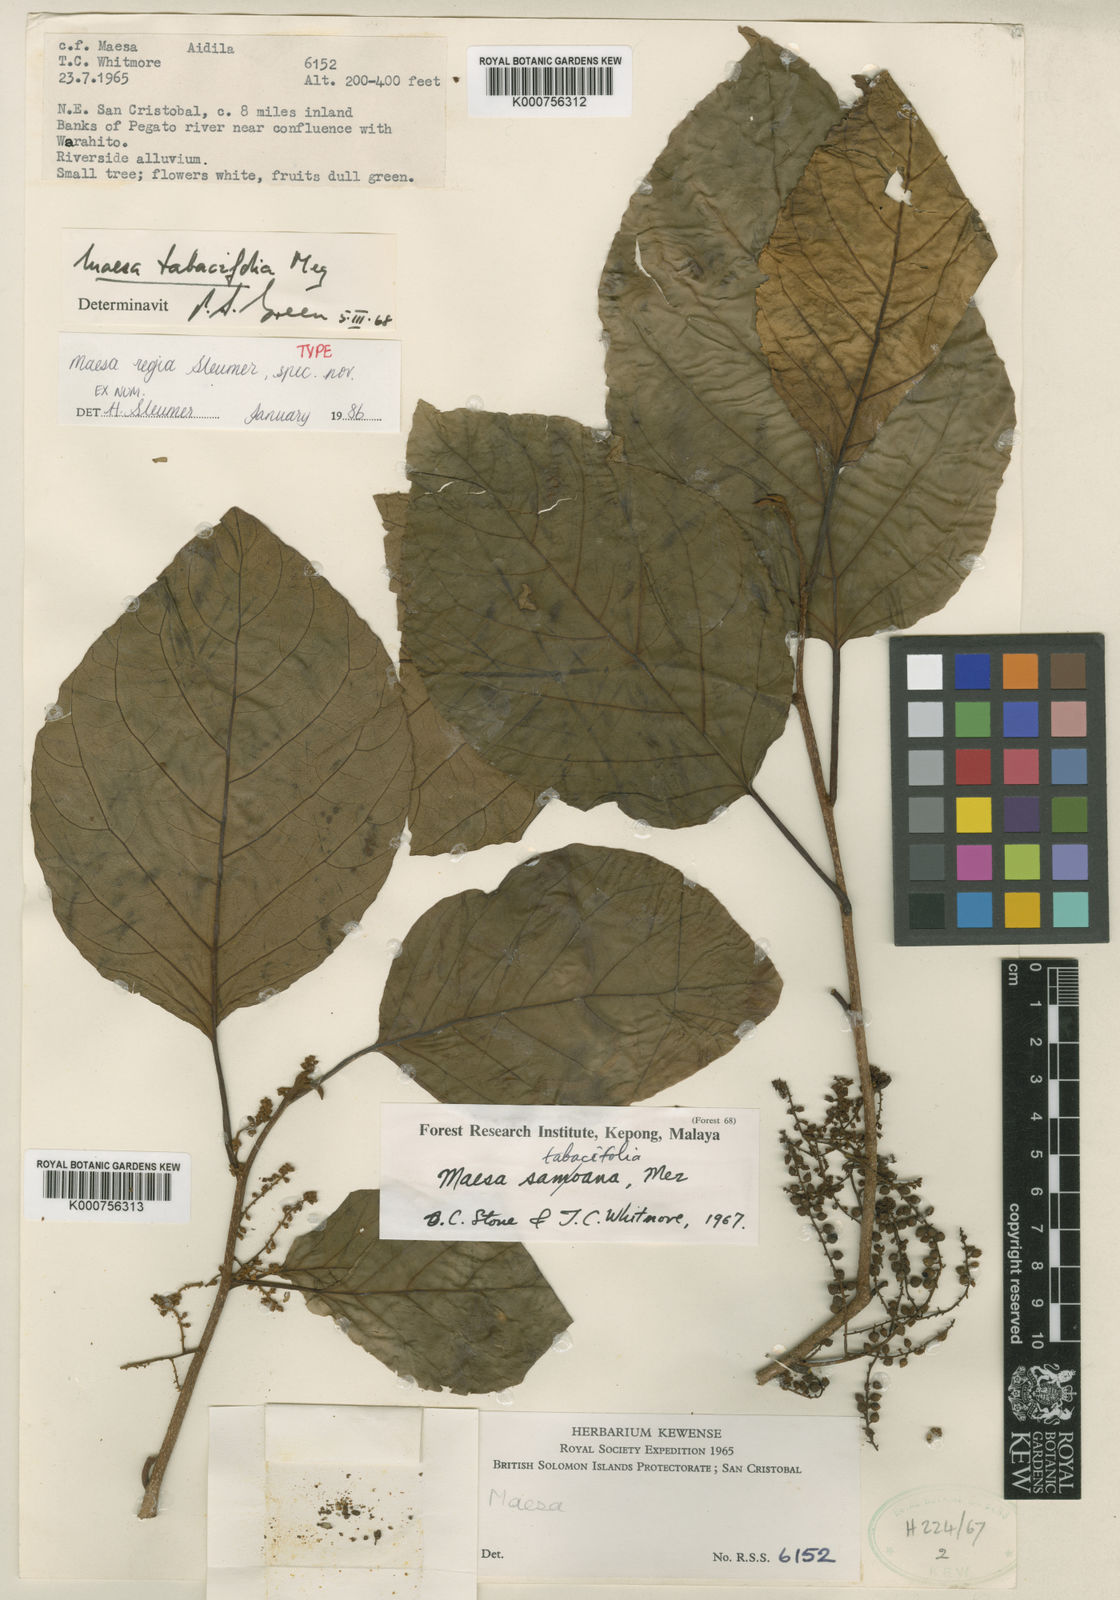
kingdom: Plantae
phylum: Tracheophyta
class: Magnoliopsida
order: Ericales
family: Primulaceae
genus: Maesa
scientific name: Maesa regia
